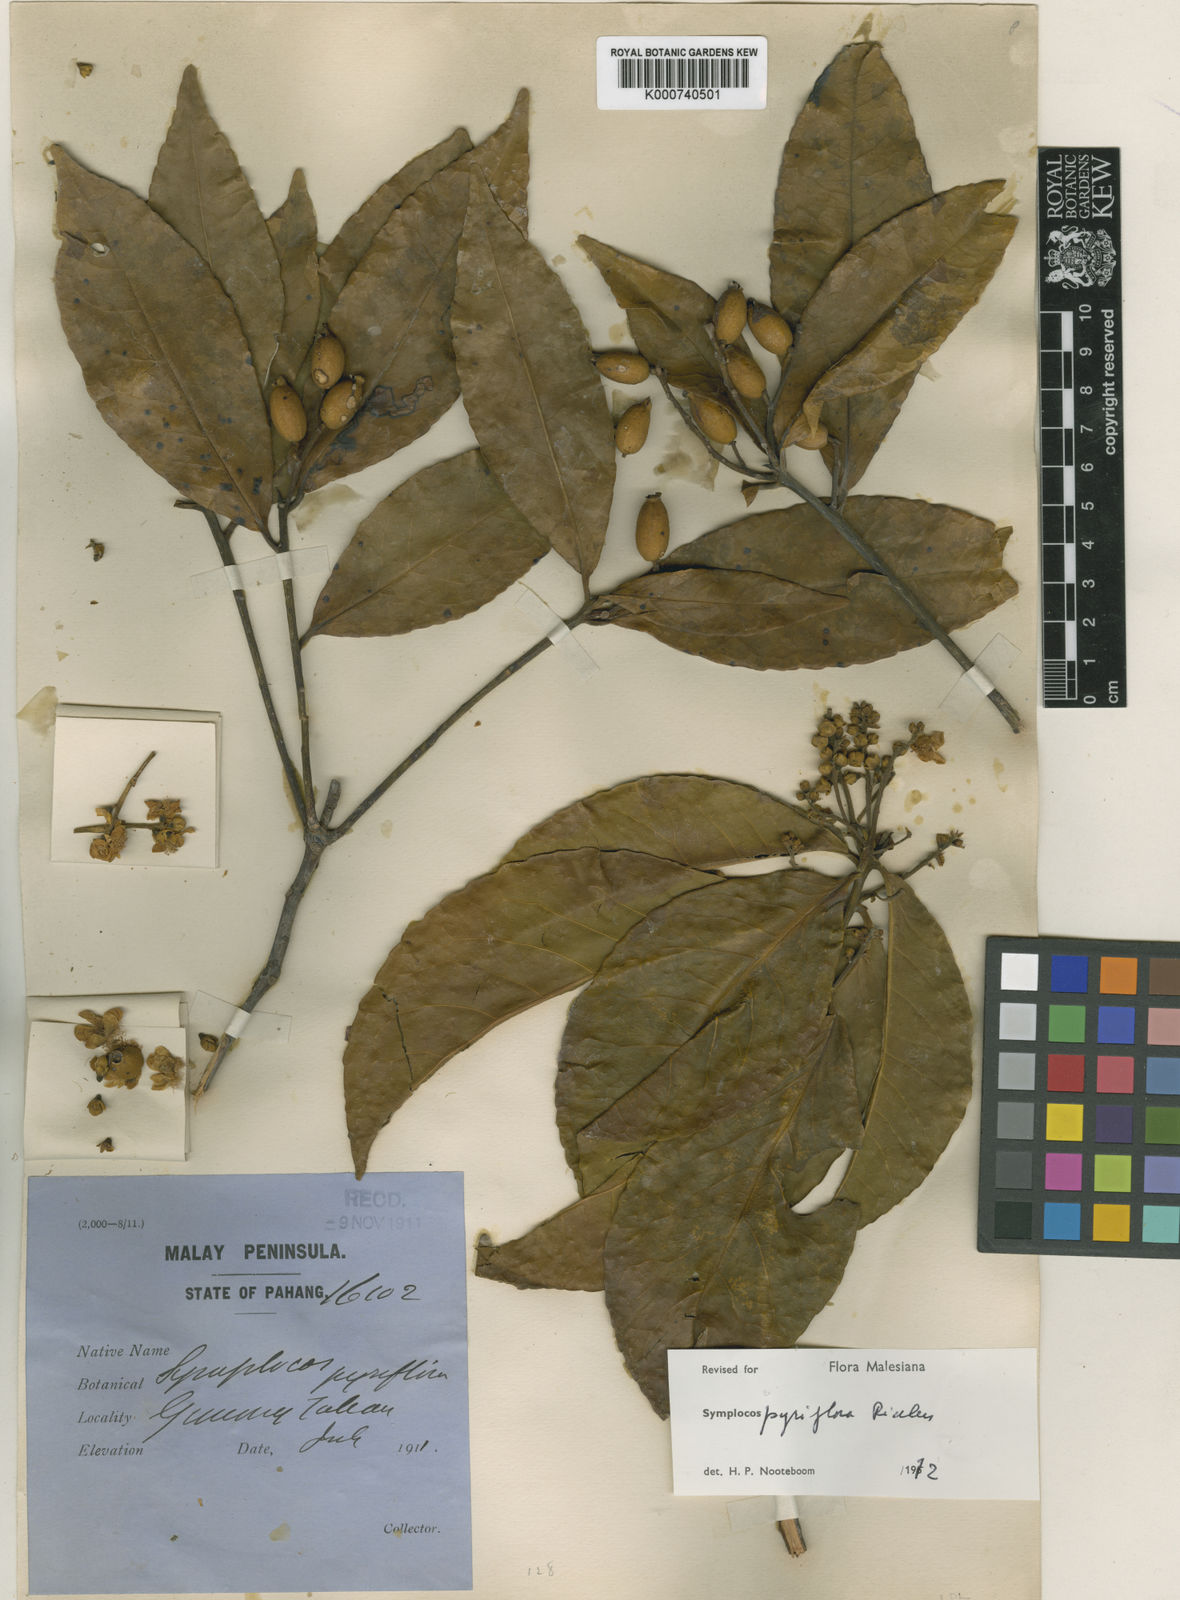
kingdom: Plantae
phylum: Tracheophyta
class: Magnoliopsida
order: Ericales
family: Symplocaceae
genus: Symplocos
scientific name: Symplocos pyriflora
